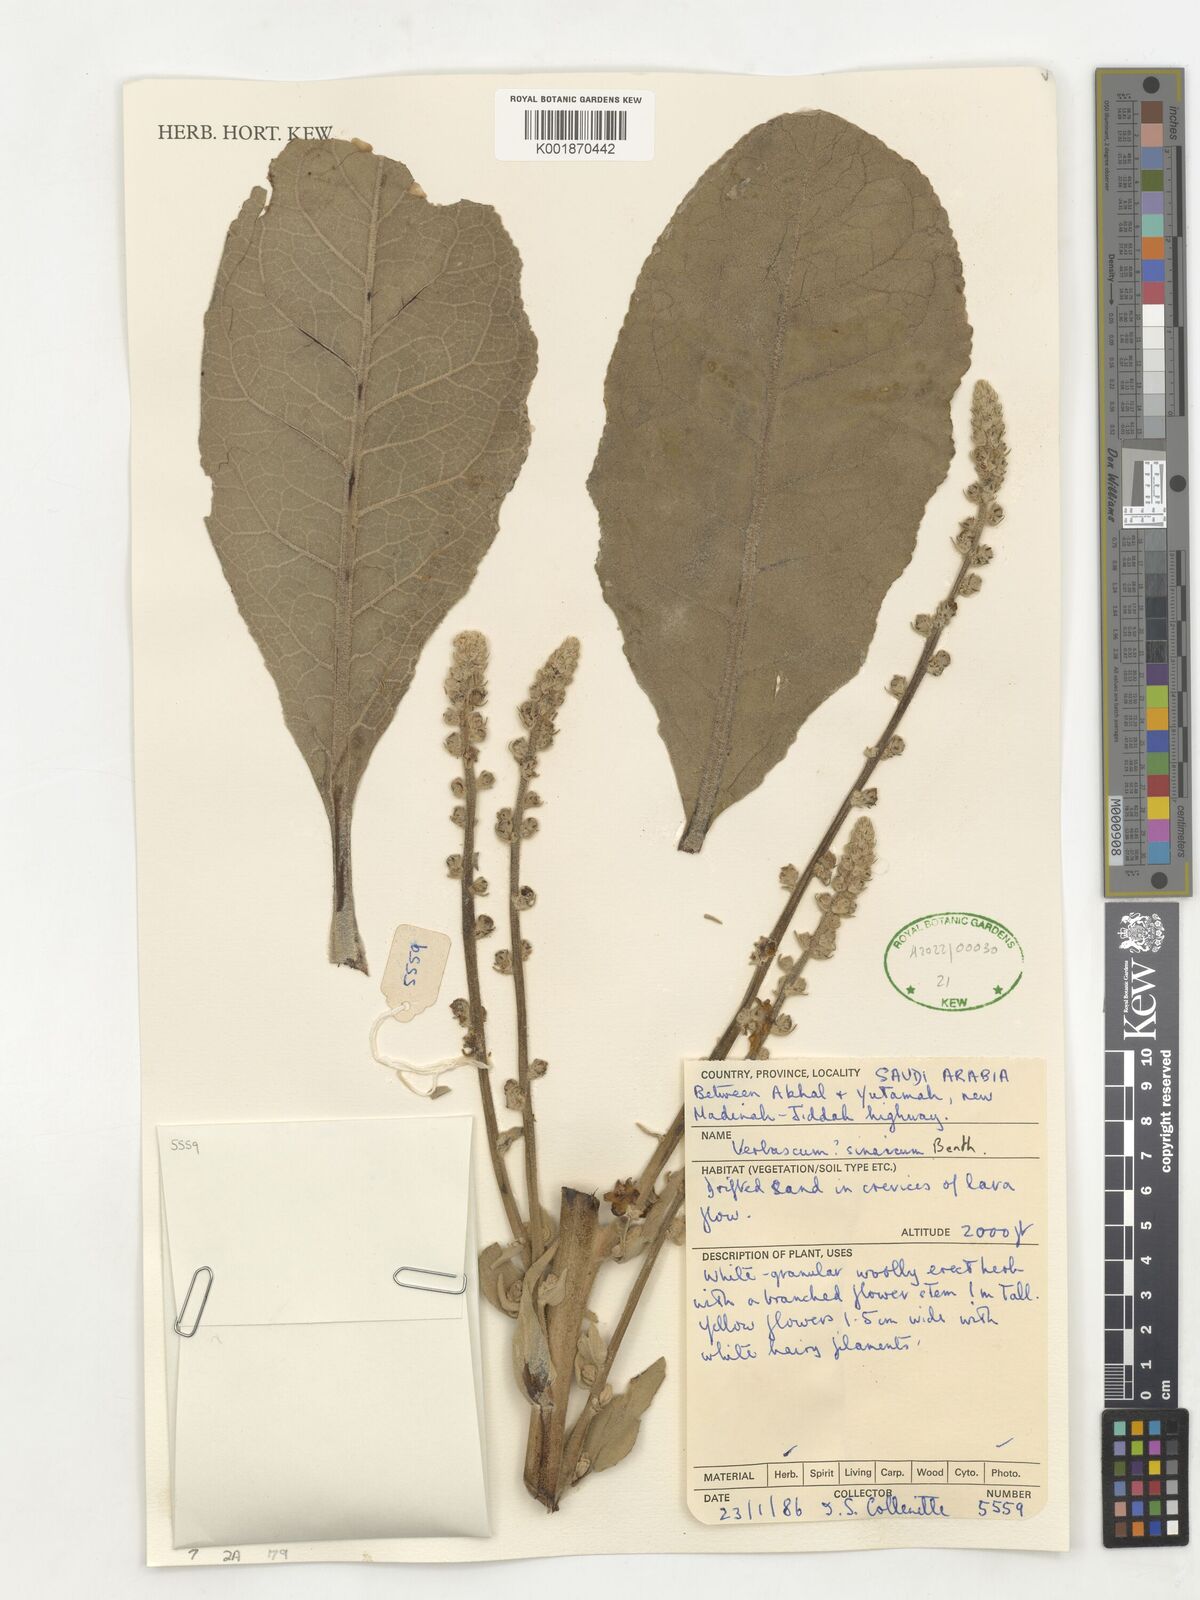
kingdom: Plantae
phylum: Tracheophyta
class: Magnoliopsida
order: Lamiales
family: Scrophulariaceae
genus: Verbascum
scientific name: Verbascum sinaiticum
